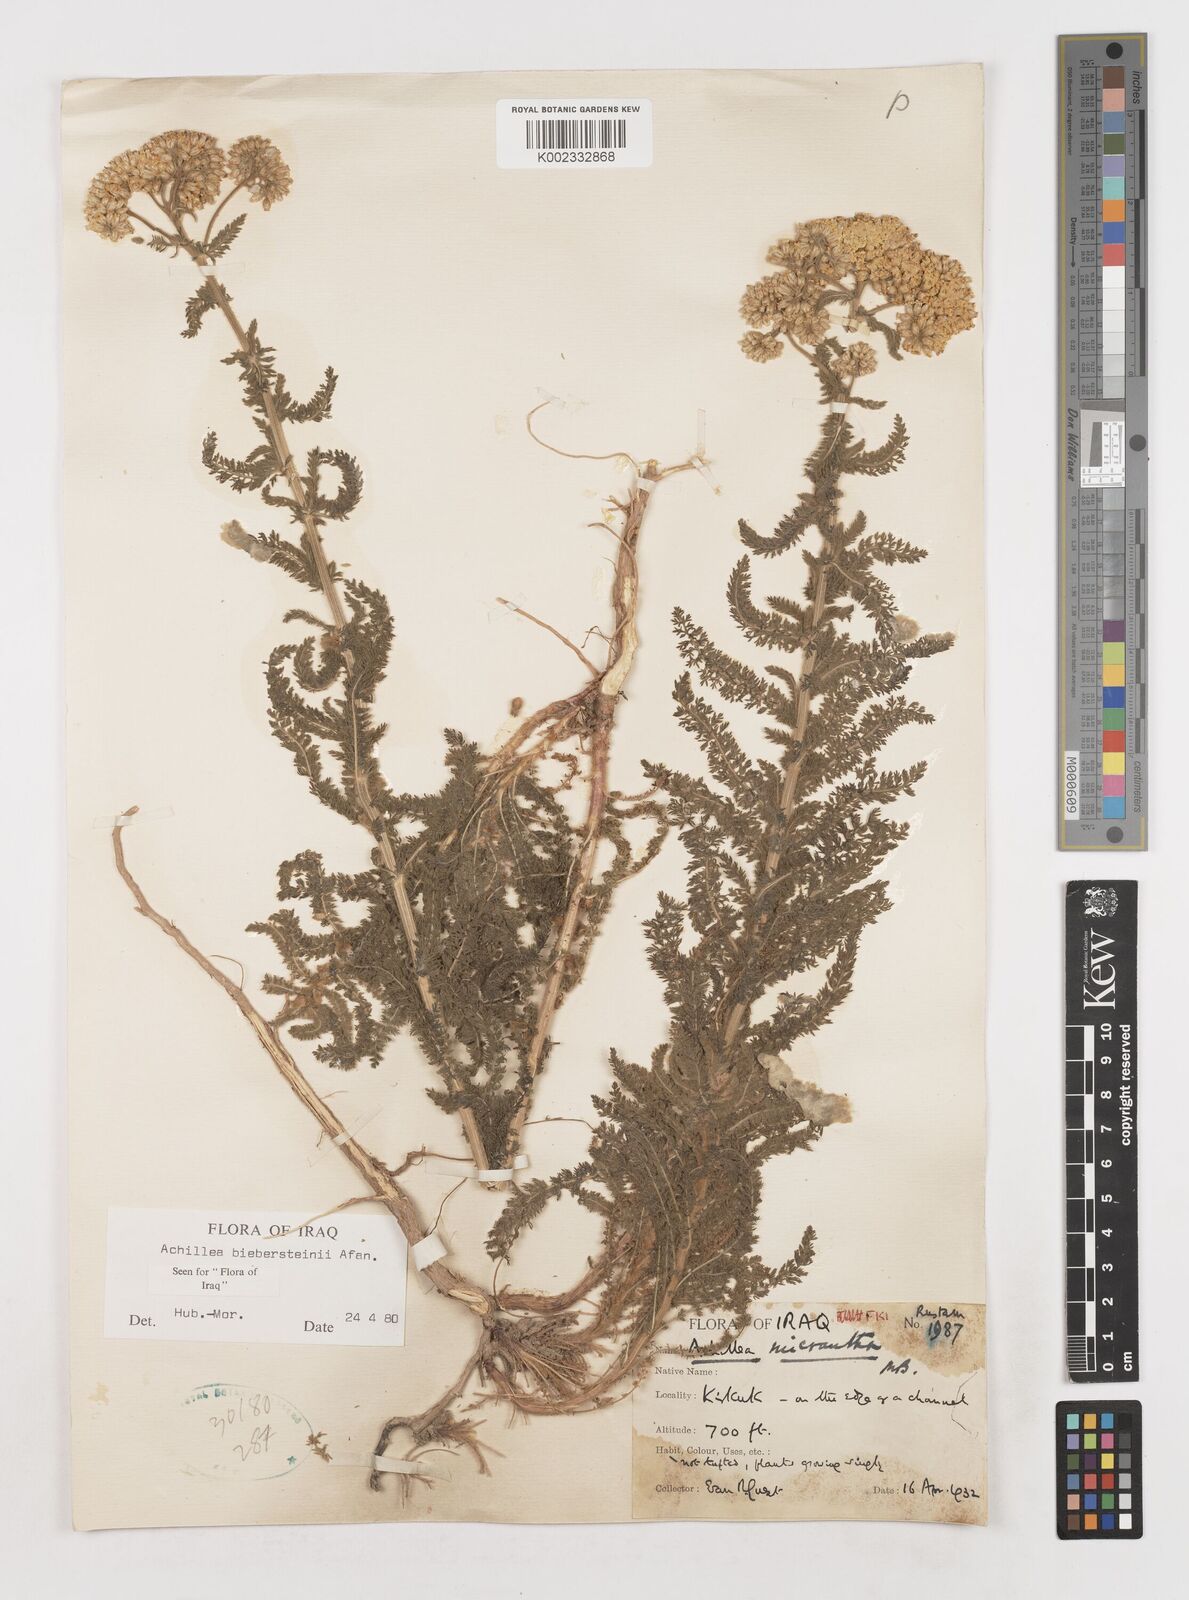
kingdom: Plantae
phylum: Tracheophyta
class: Magnoliopsida
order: Asterales
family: Asteraceae
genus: Achillea
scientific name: Achillea arabica
